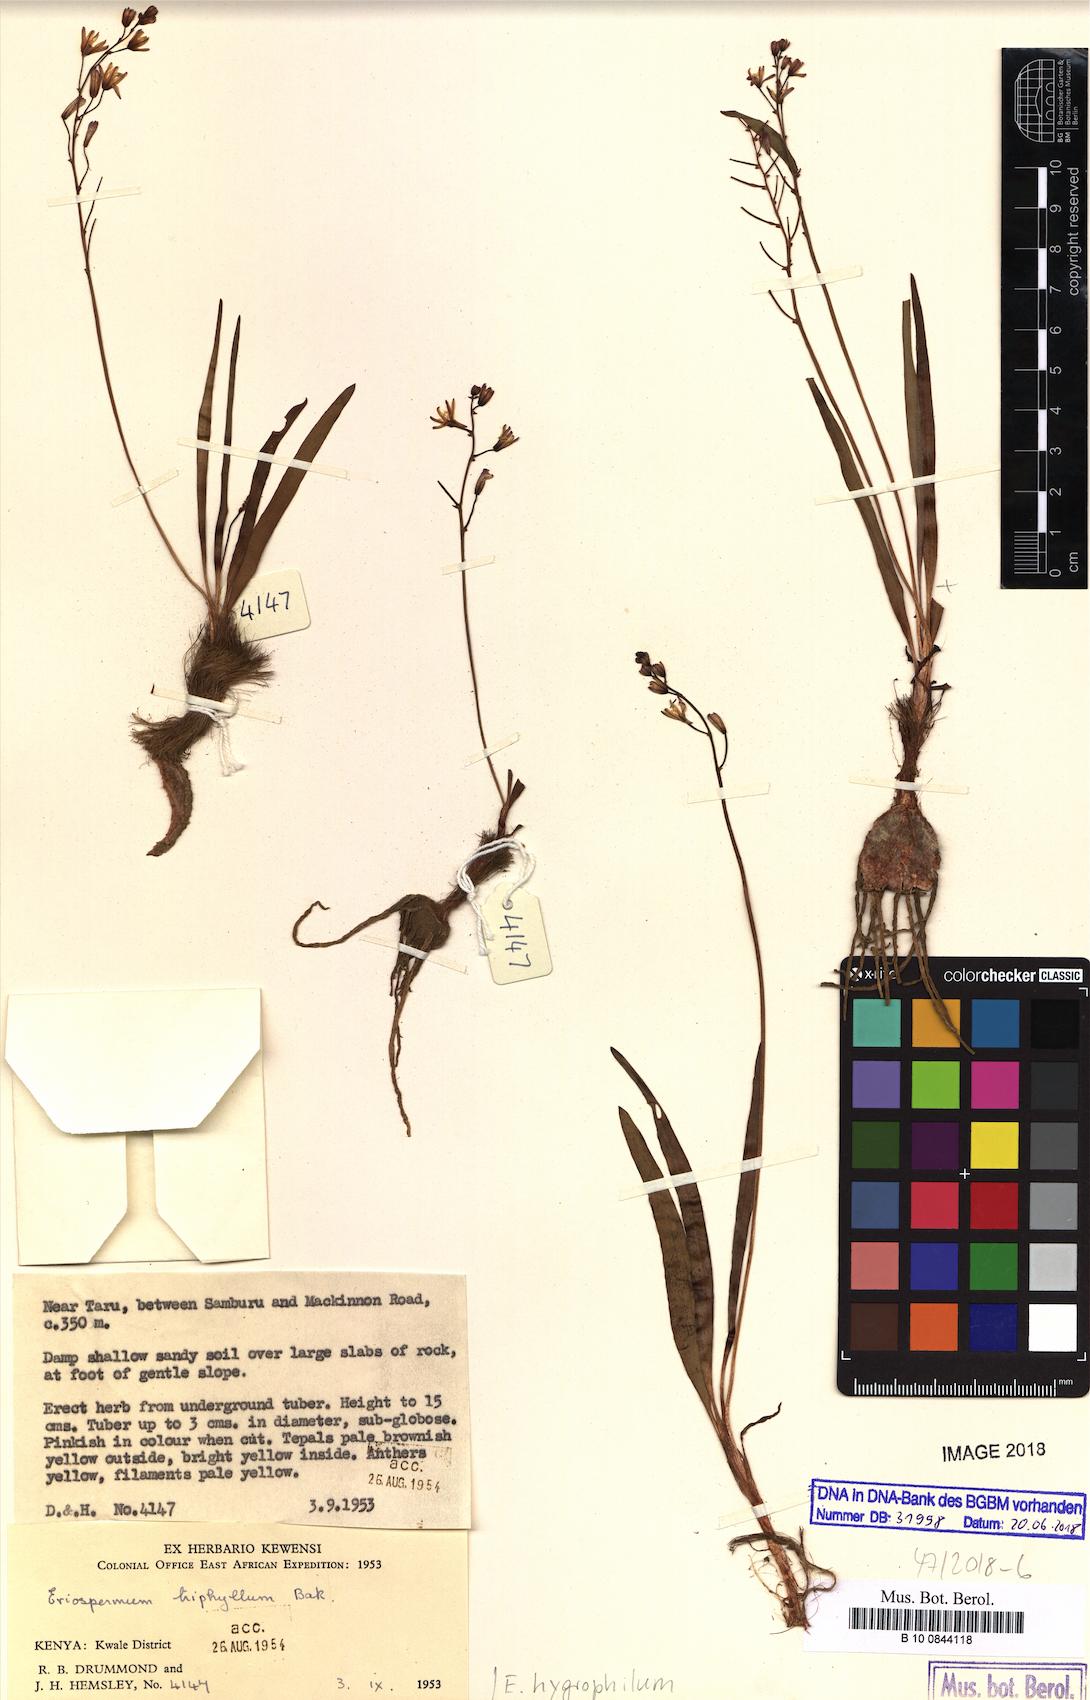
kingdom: Plantae
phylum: Tracheophyta
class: Liliopsida
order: Asparagales
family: Asparagaceae
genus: Eriospermum
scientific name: Eriospermum cooperi
